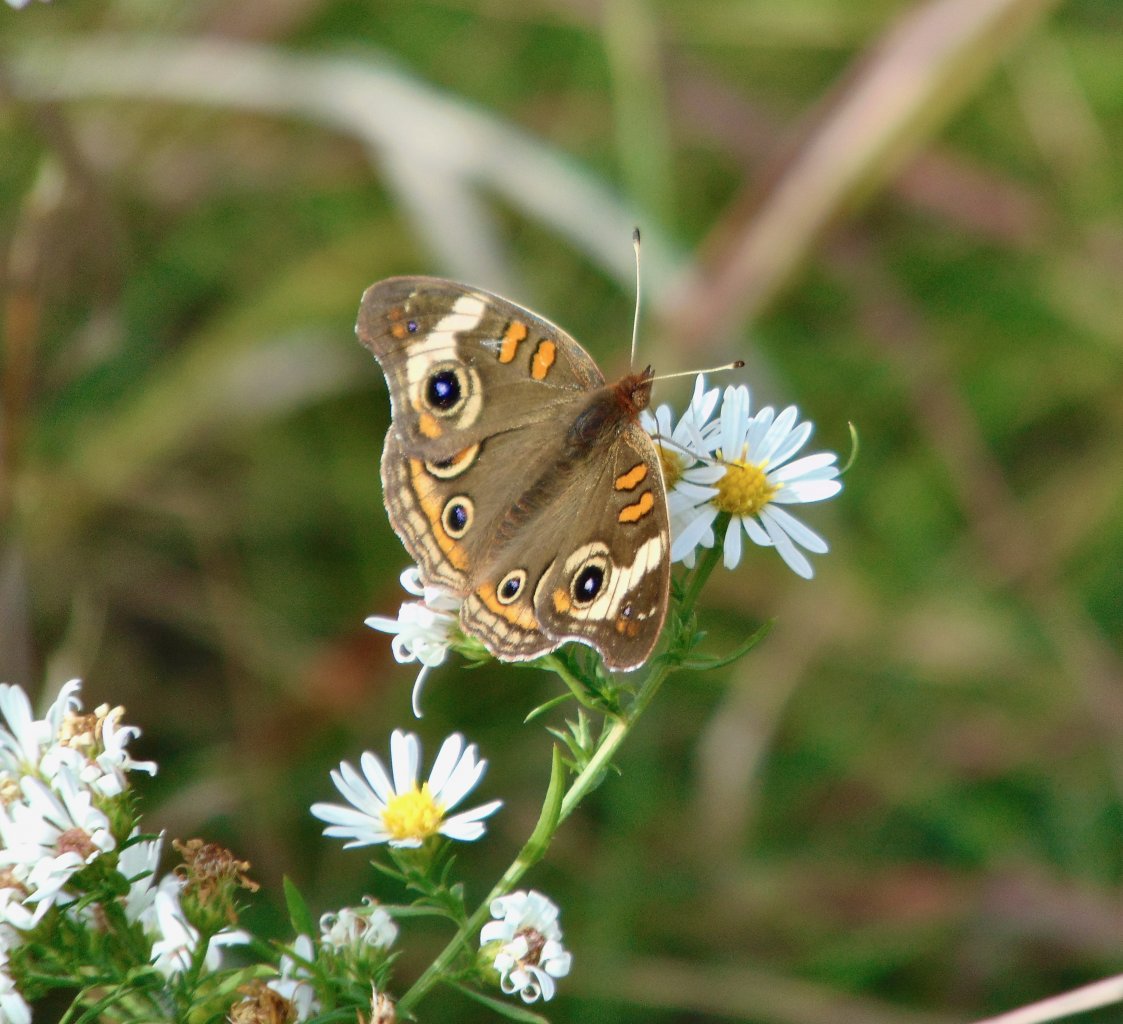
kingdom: Animalia
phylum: Arthropoda
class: Insecta
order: Lepidoptera
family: Nymphalidae
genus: Junonia
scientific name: Junonia coenia
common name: Common Buckeye
